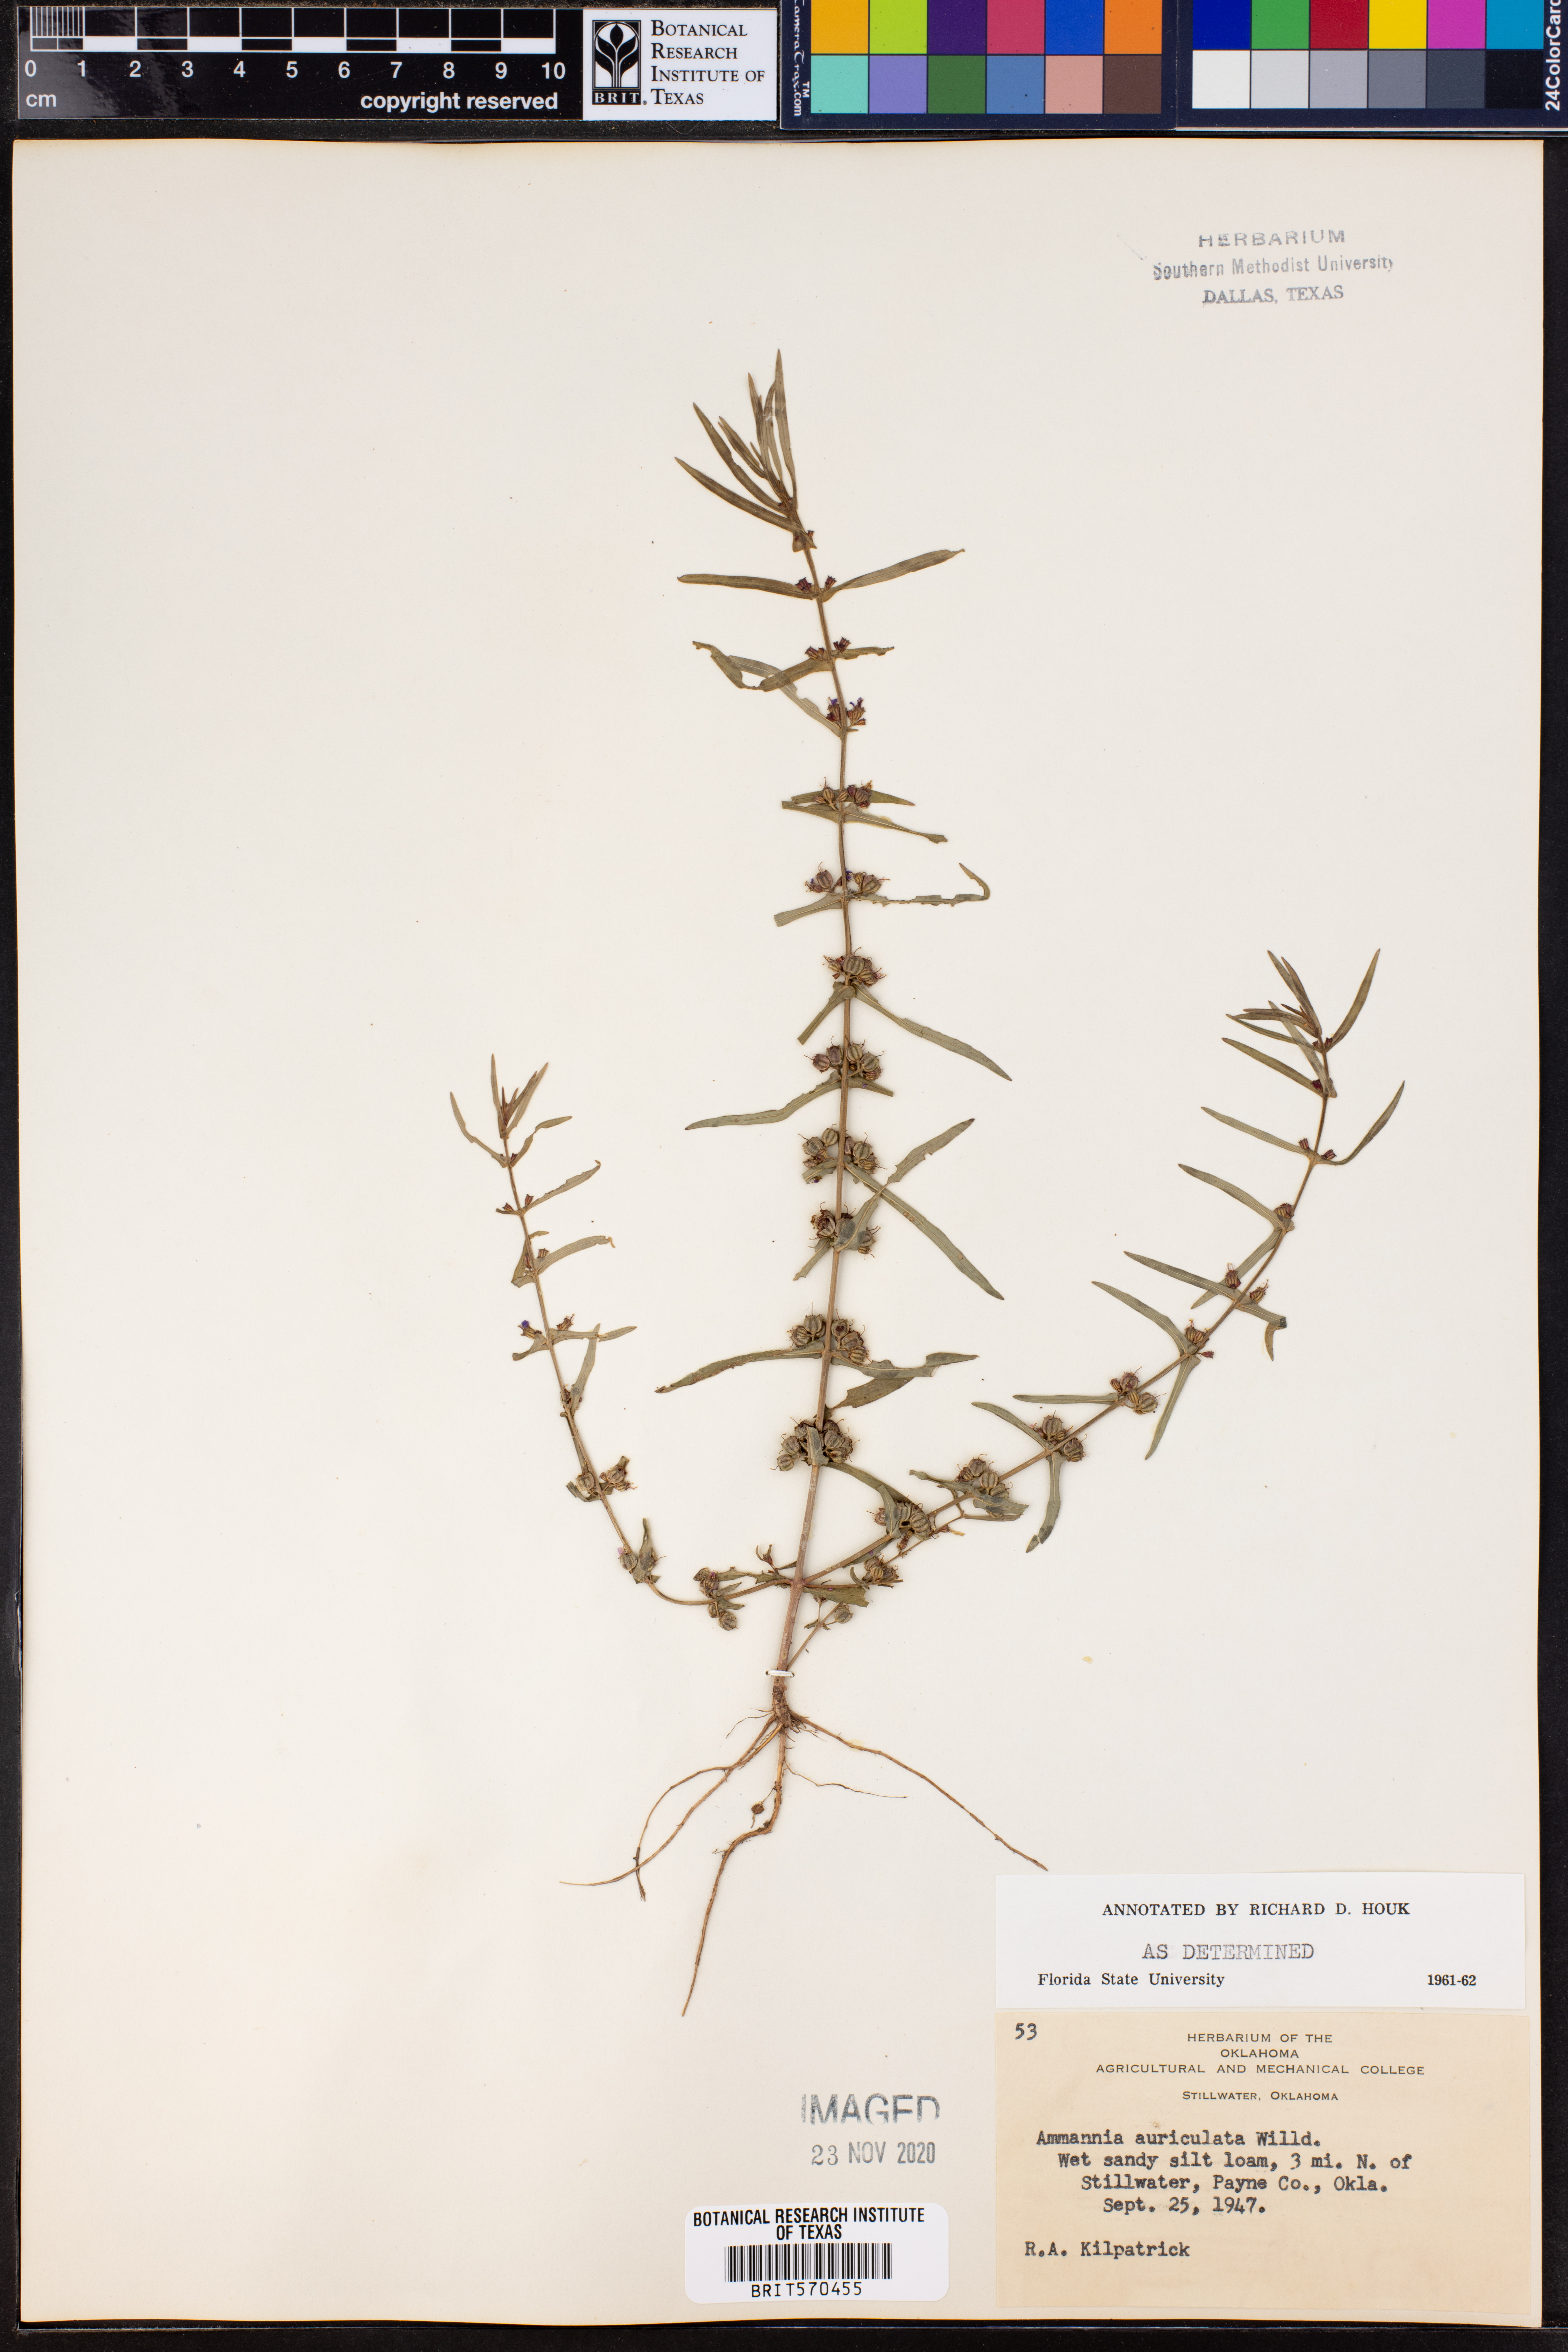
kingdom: Plantae
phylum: Tracheophyta
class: Magnoliopsida
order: Myrtales
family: Lythraceae
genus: Ammannia
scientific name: Ammannia auriculata
